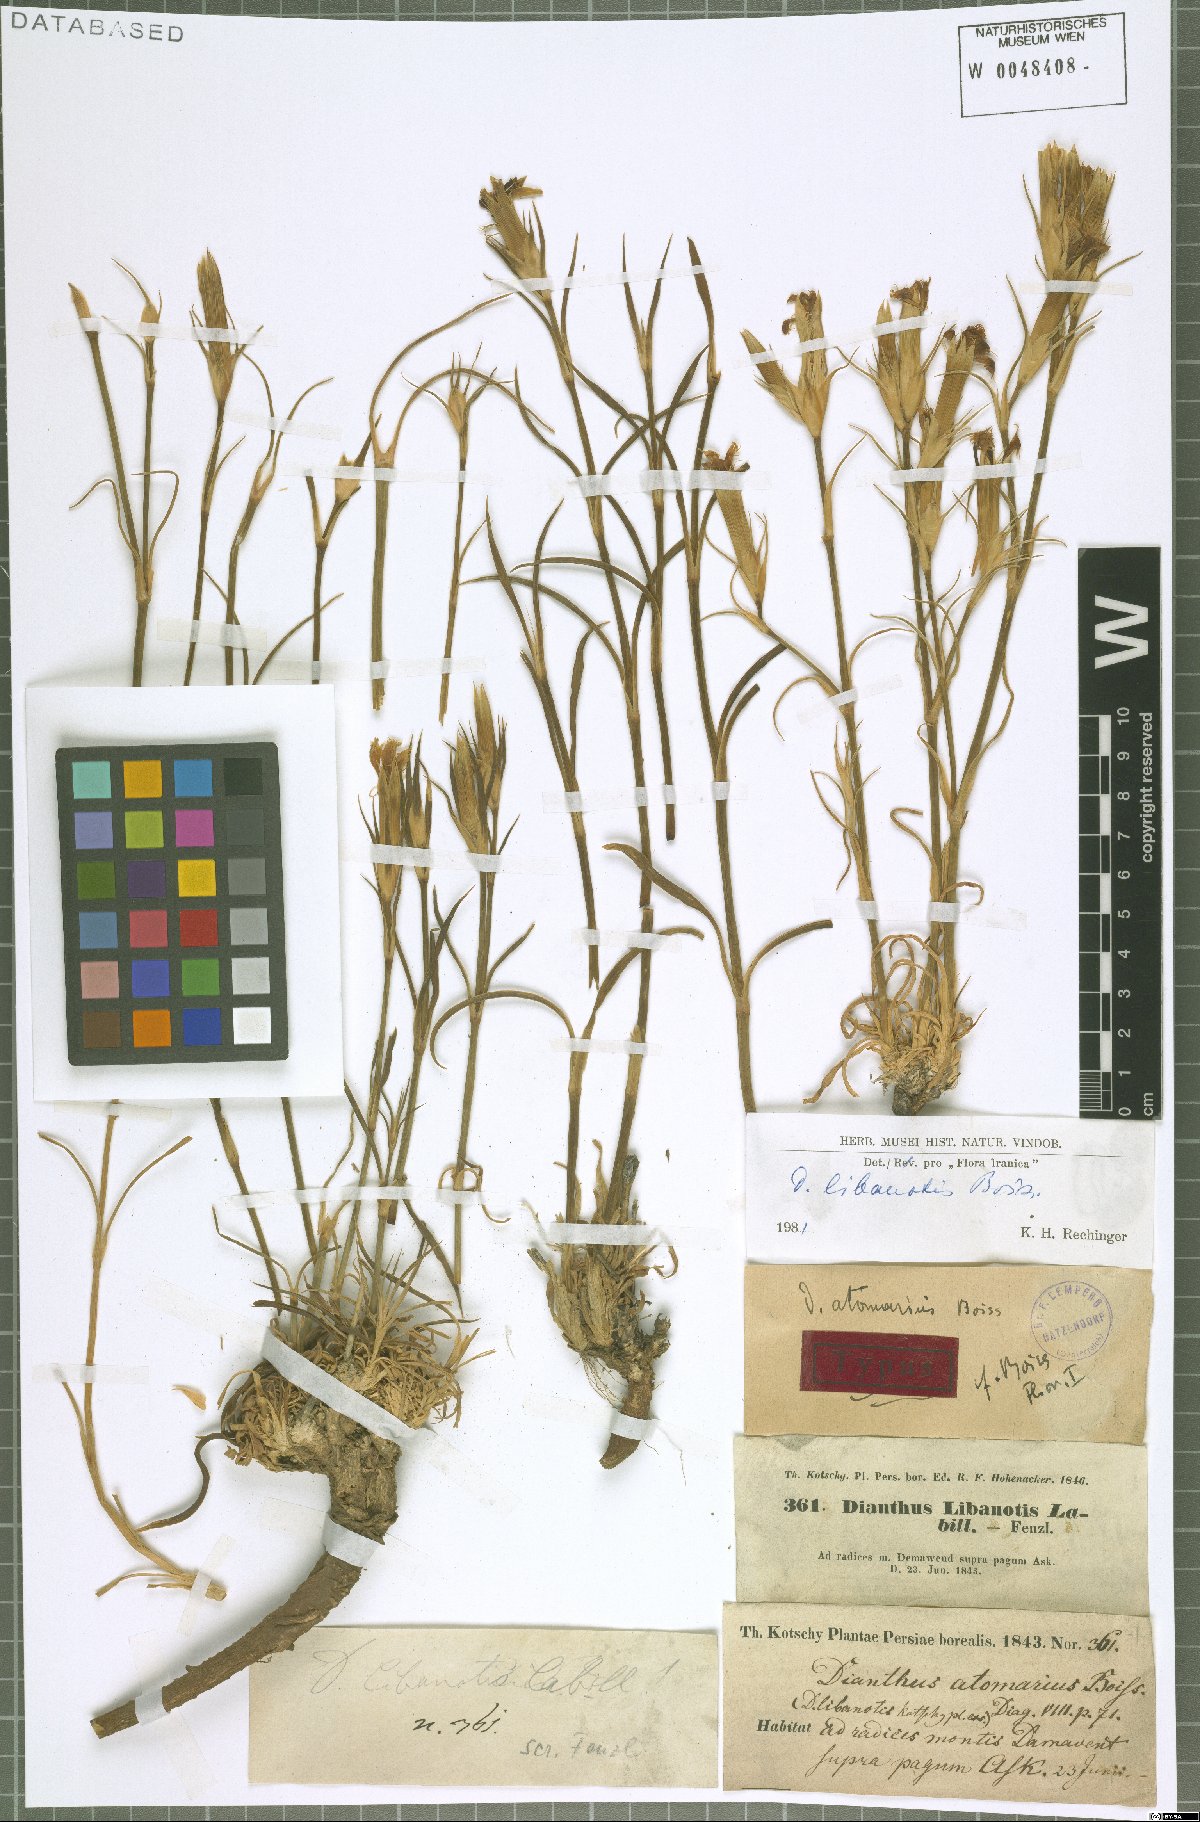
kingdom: Plantae
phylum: Tracheophyta
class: Magnoliopsida
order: Caryophyllales
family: Caryophyllaceae
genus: Dianthus
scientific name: Dianthus libanotis
